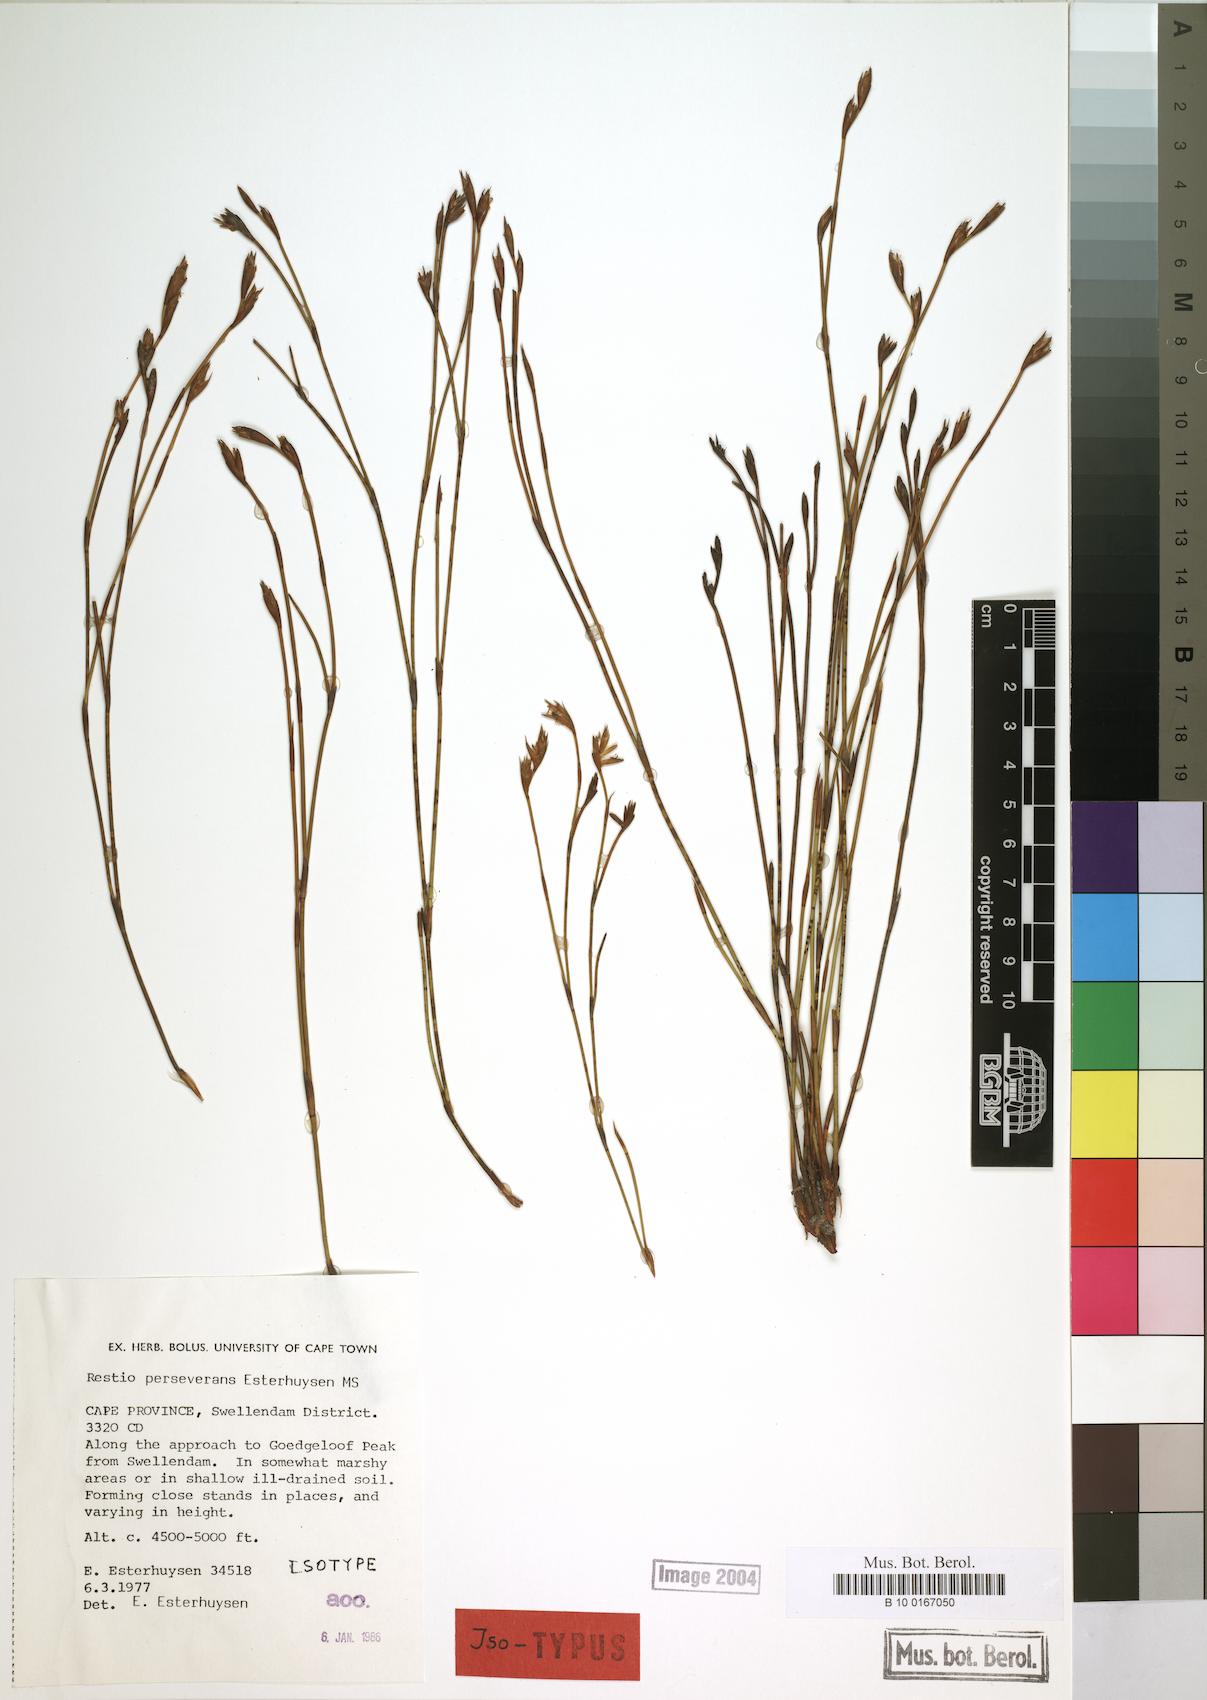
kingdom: Plantae
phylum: Tracheophyta
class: Liliopsida
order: Poales
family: Restionaceae
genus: Restio
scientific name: Restio perseverans
